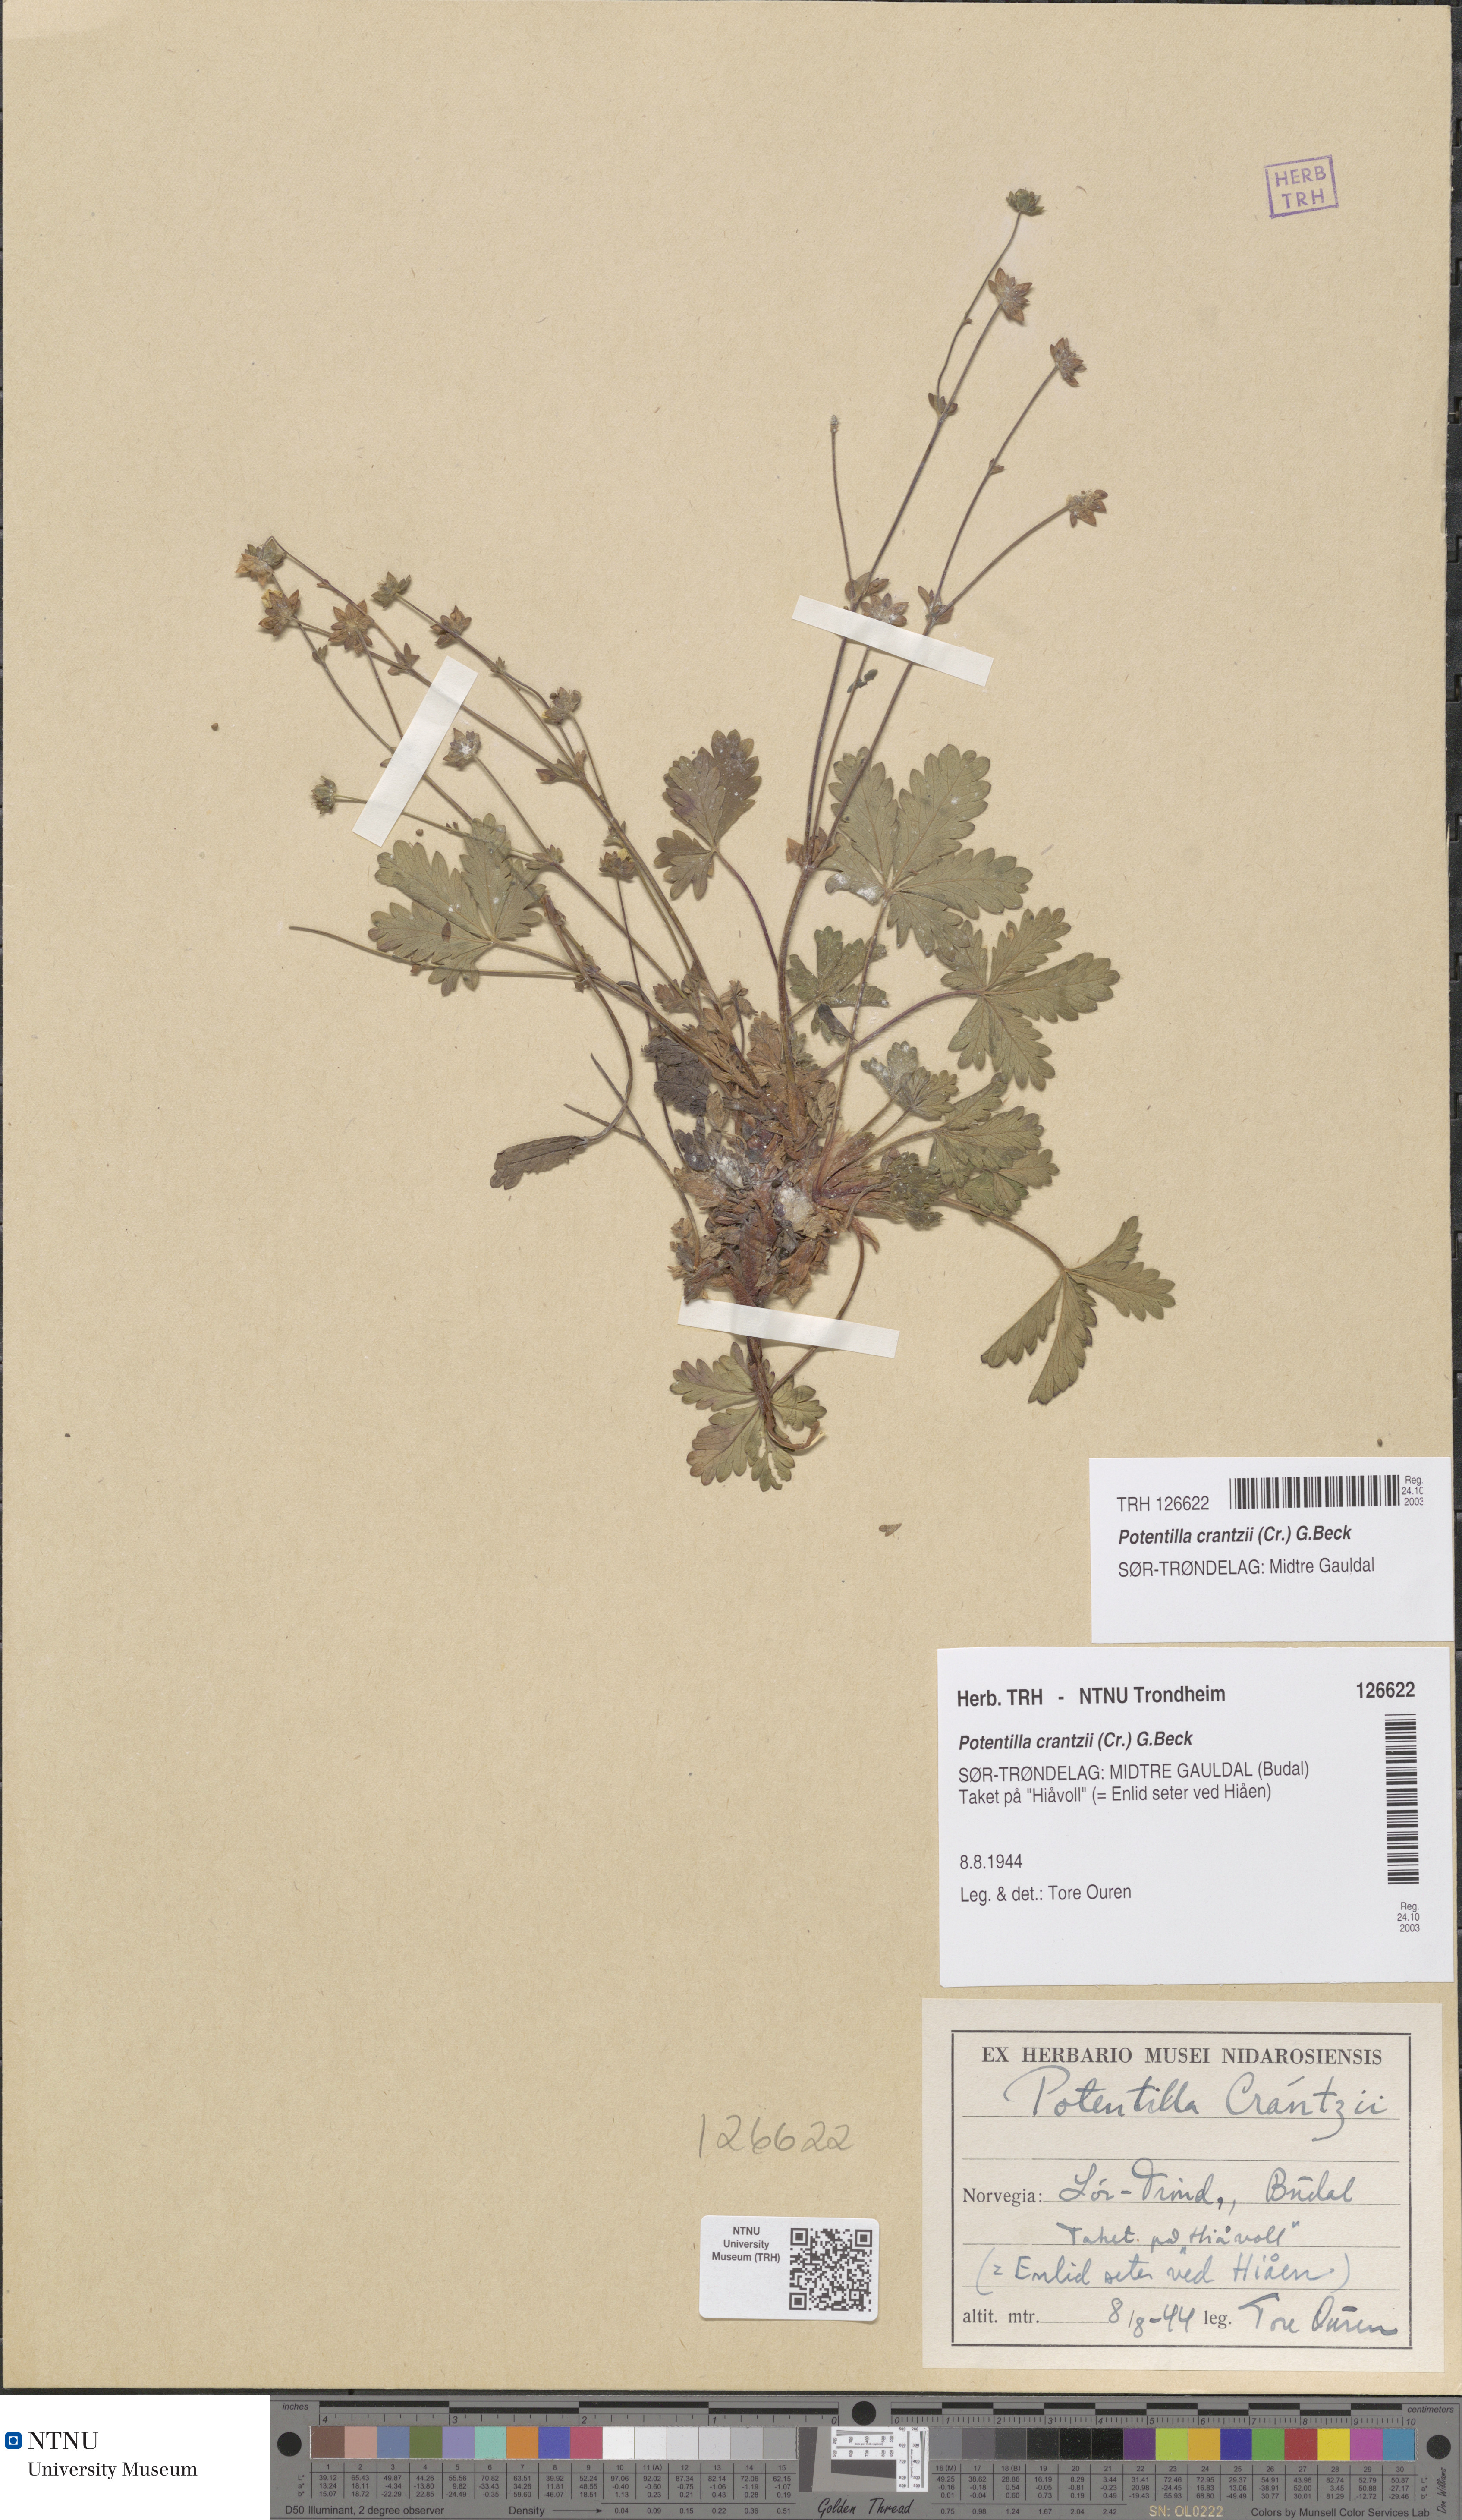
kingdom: Plantae
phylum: Tracheophyta
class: Magnoliopsida
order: Rosales
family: Rosaceae
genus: Potentilla
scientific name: Potentilla crantzii
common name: Alpine cinquefoil
